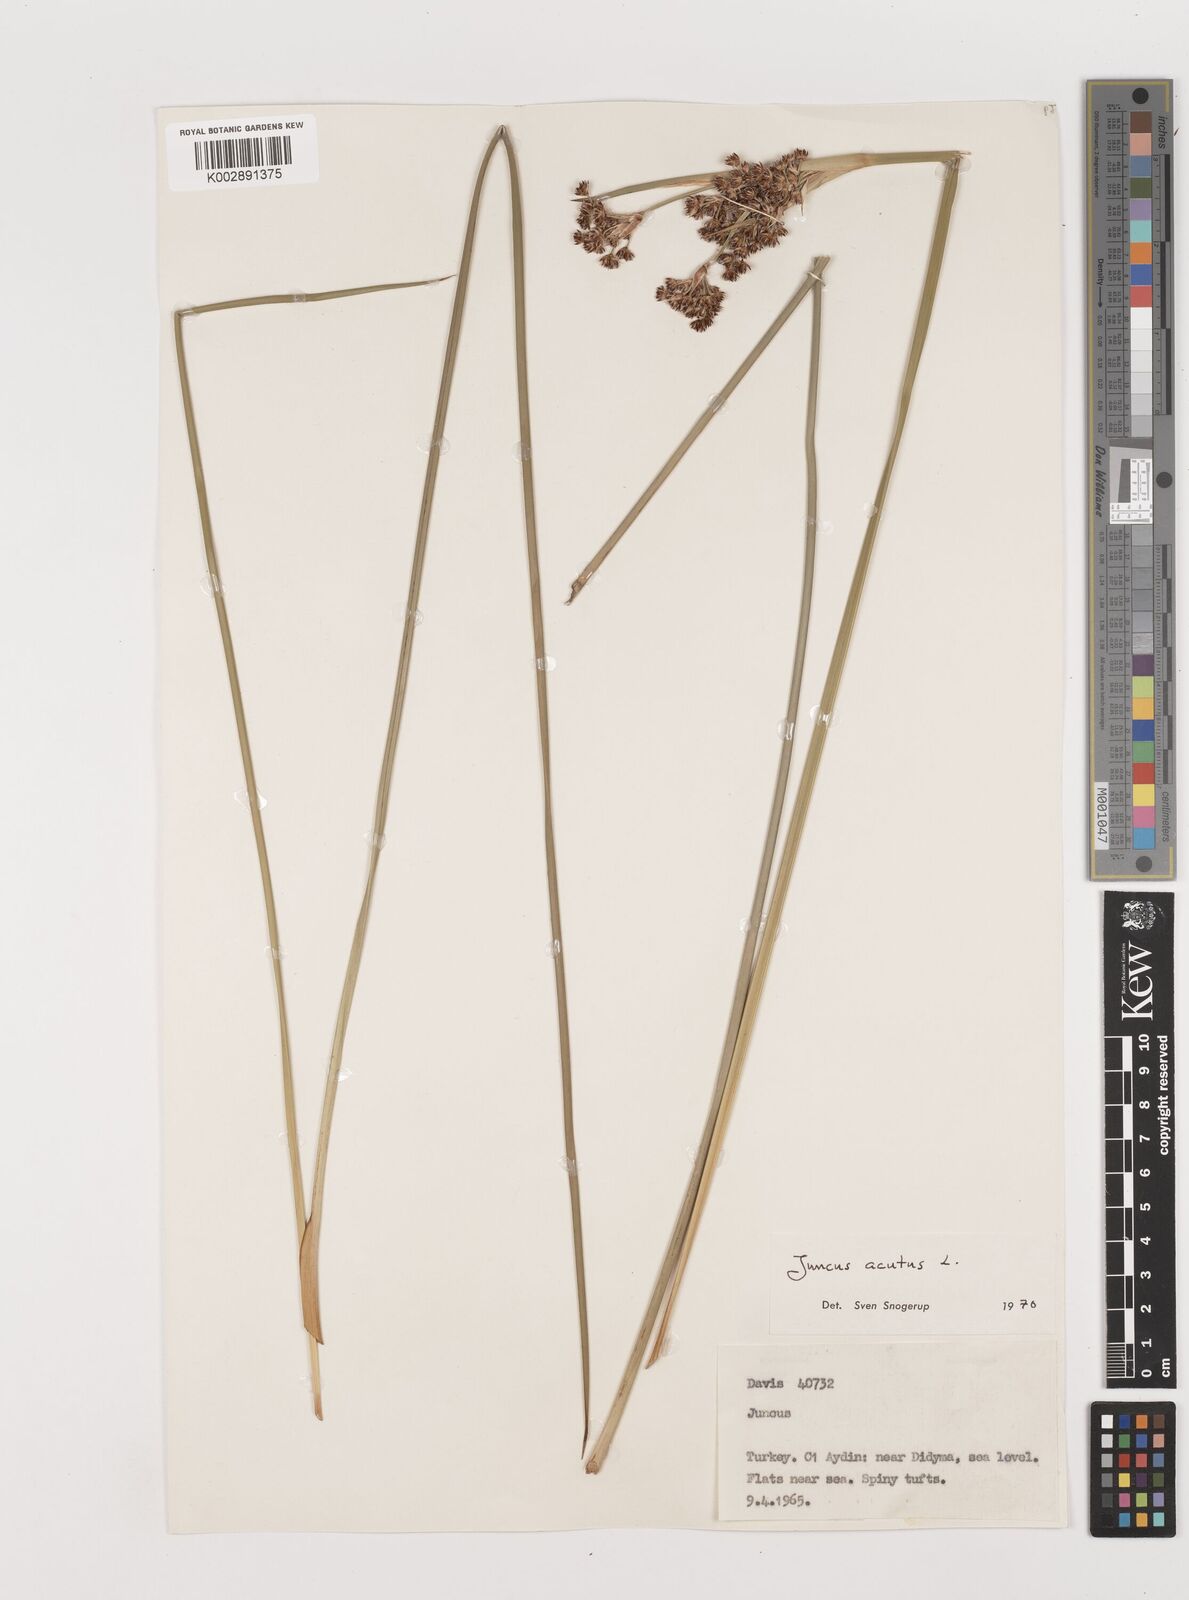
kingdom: Plantae
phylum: Tracheophyta
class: Liliopsida
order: Poales
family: Juncaceae
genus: Juncus
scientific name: Juncus acutus
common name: Sharp rush
